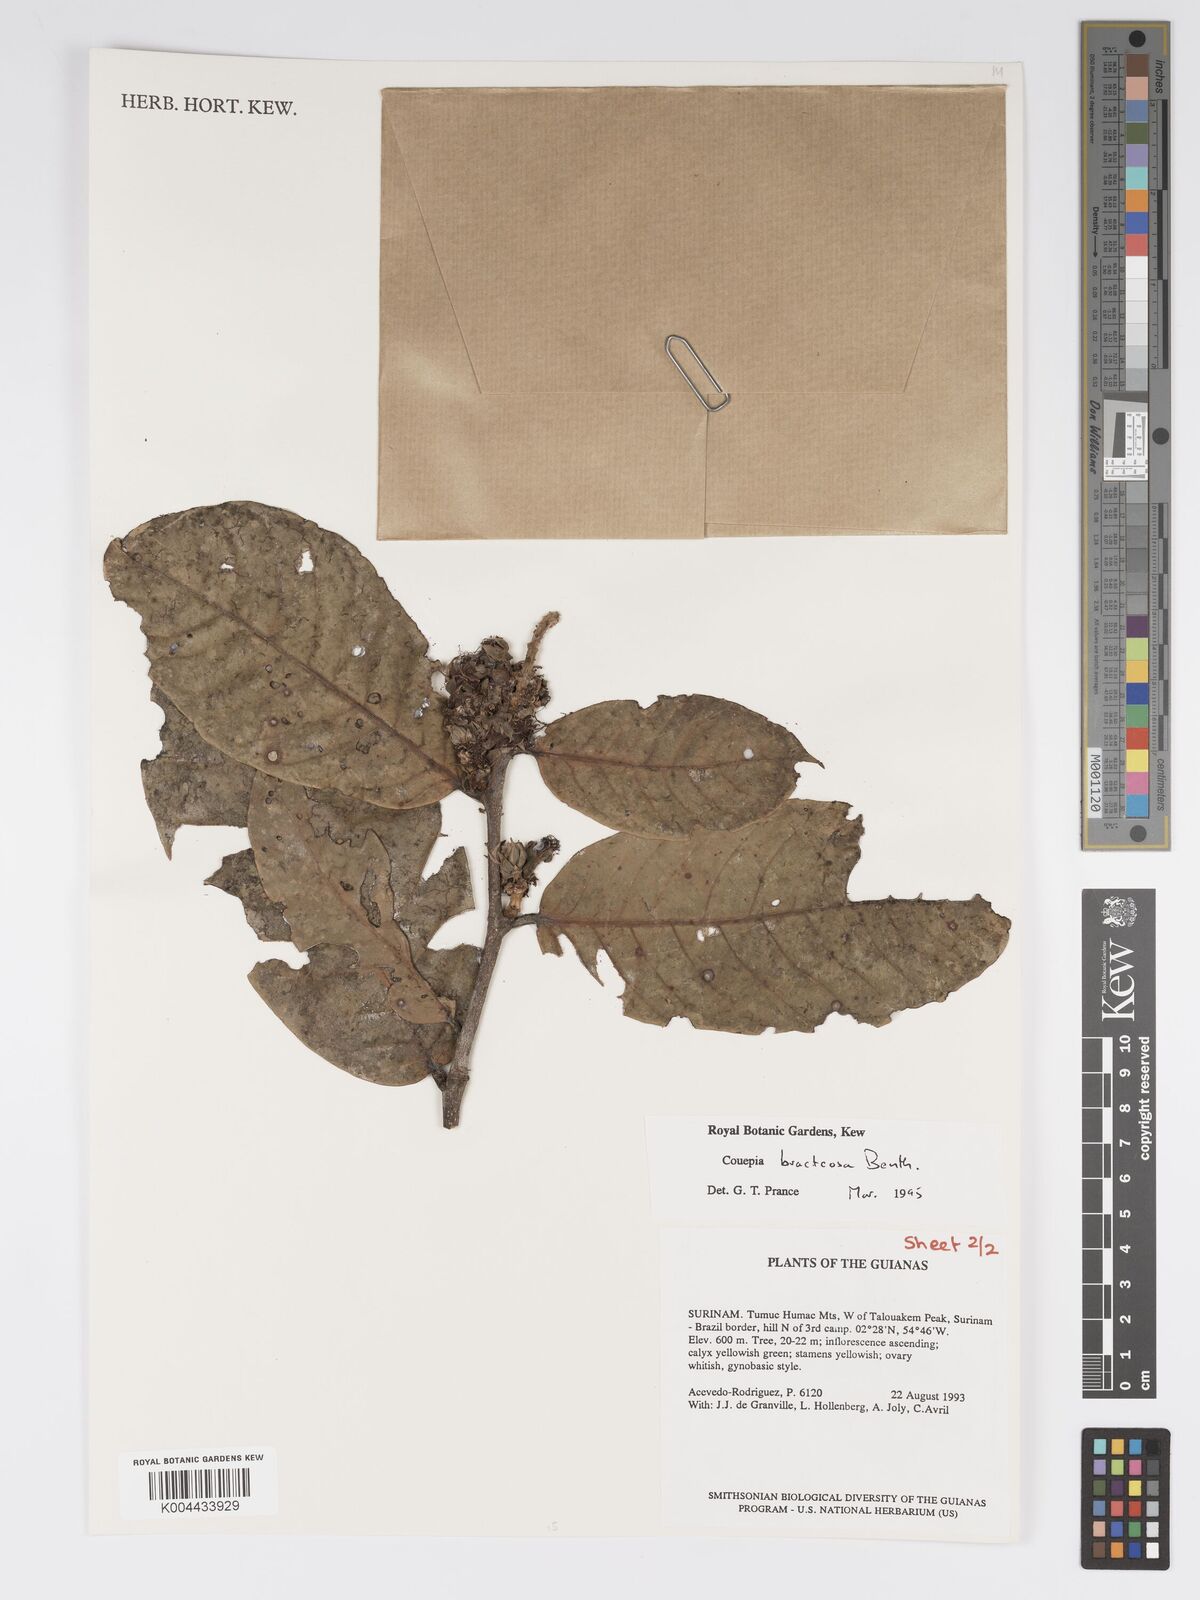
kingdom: Plantae
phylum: Tracheophyta
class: Magnoliopsida
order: Malpighiales
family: Chrysobalanaceae
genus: Couepia
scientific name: Couepia bracteosa
